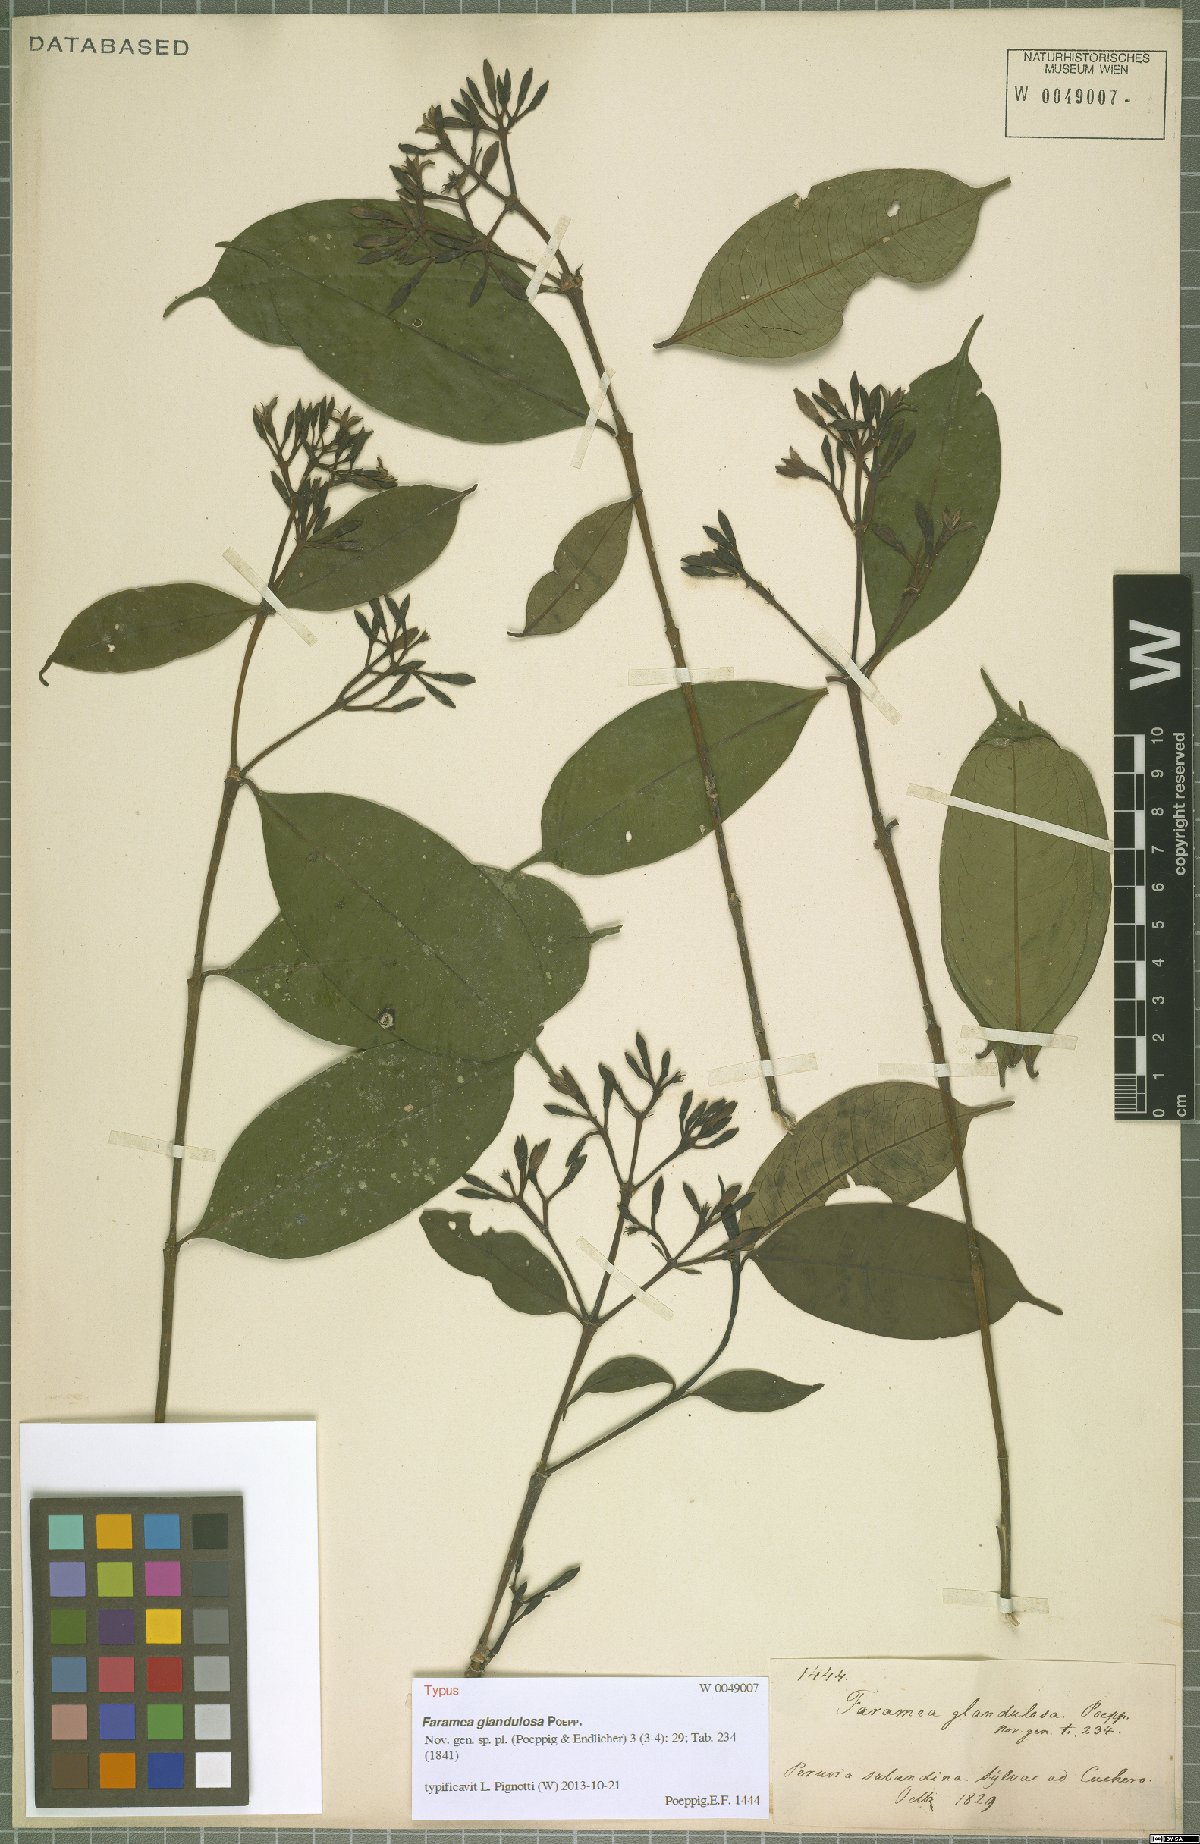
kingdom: Plantae
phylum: Tracheophyta
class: Magnoliopsida
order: Gentianales
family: Rubiaceae
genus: Faramea
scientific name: Faramea glandulosa
